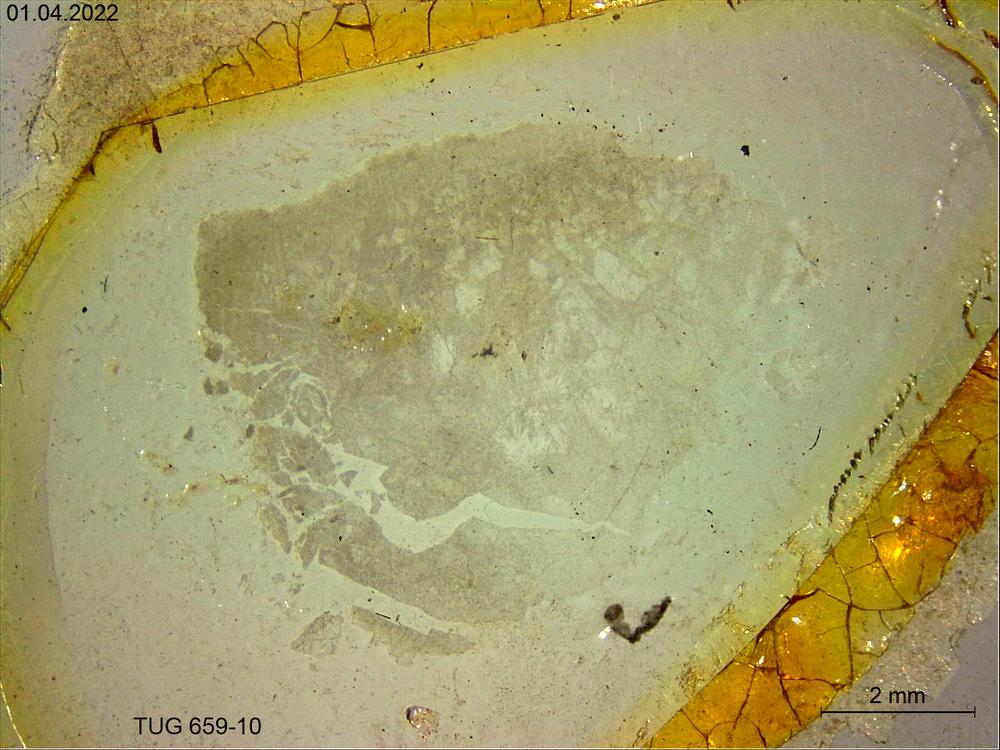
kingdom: Animalia
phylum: Porifera
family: Stromatoporidae
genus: Stromatopora
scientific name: Stromatopora
